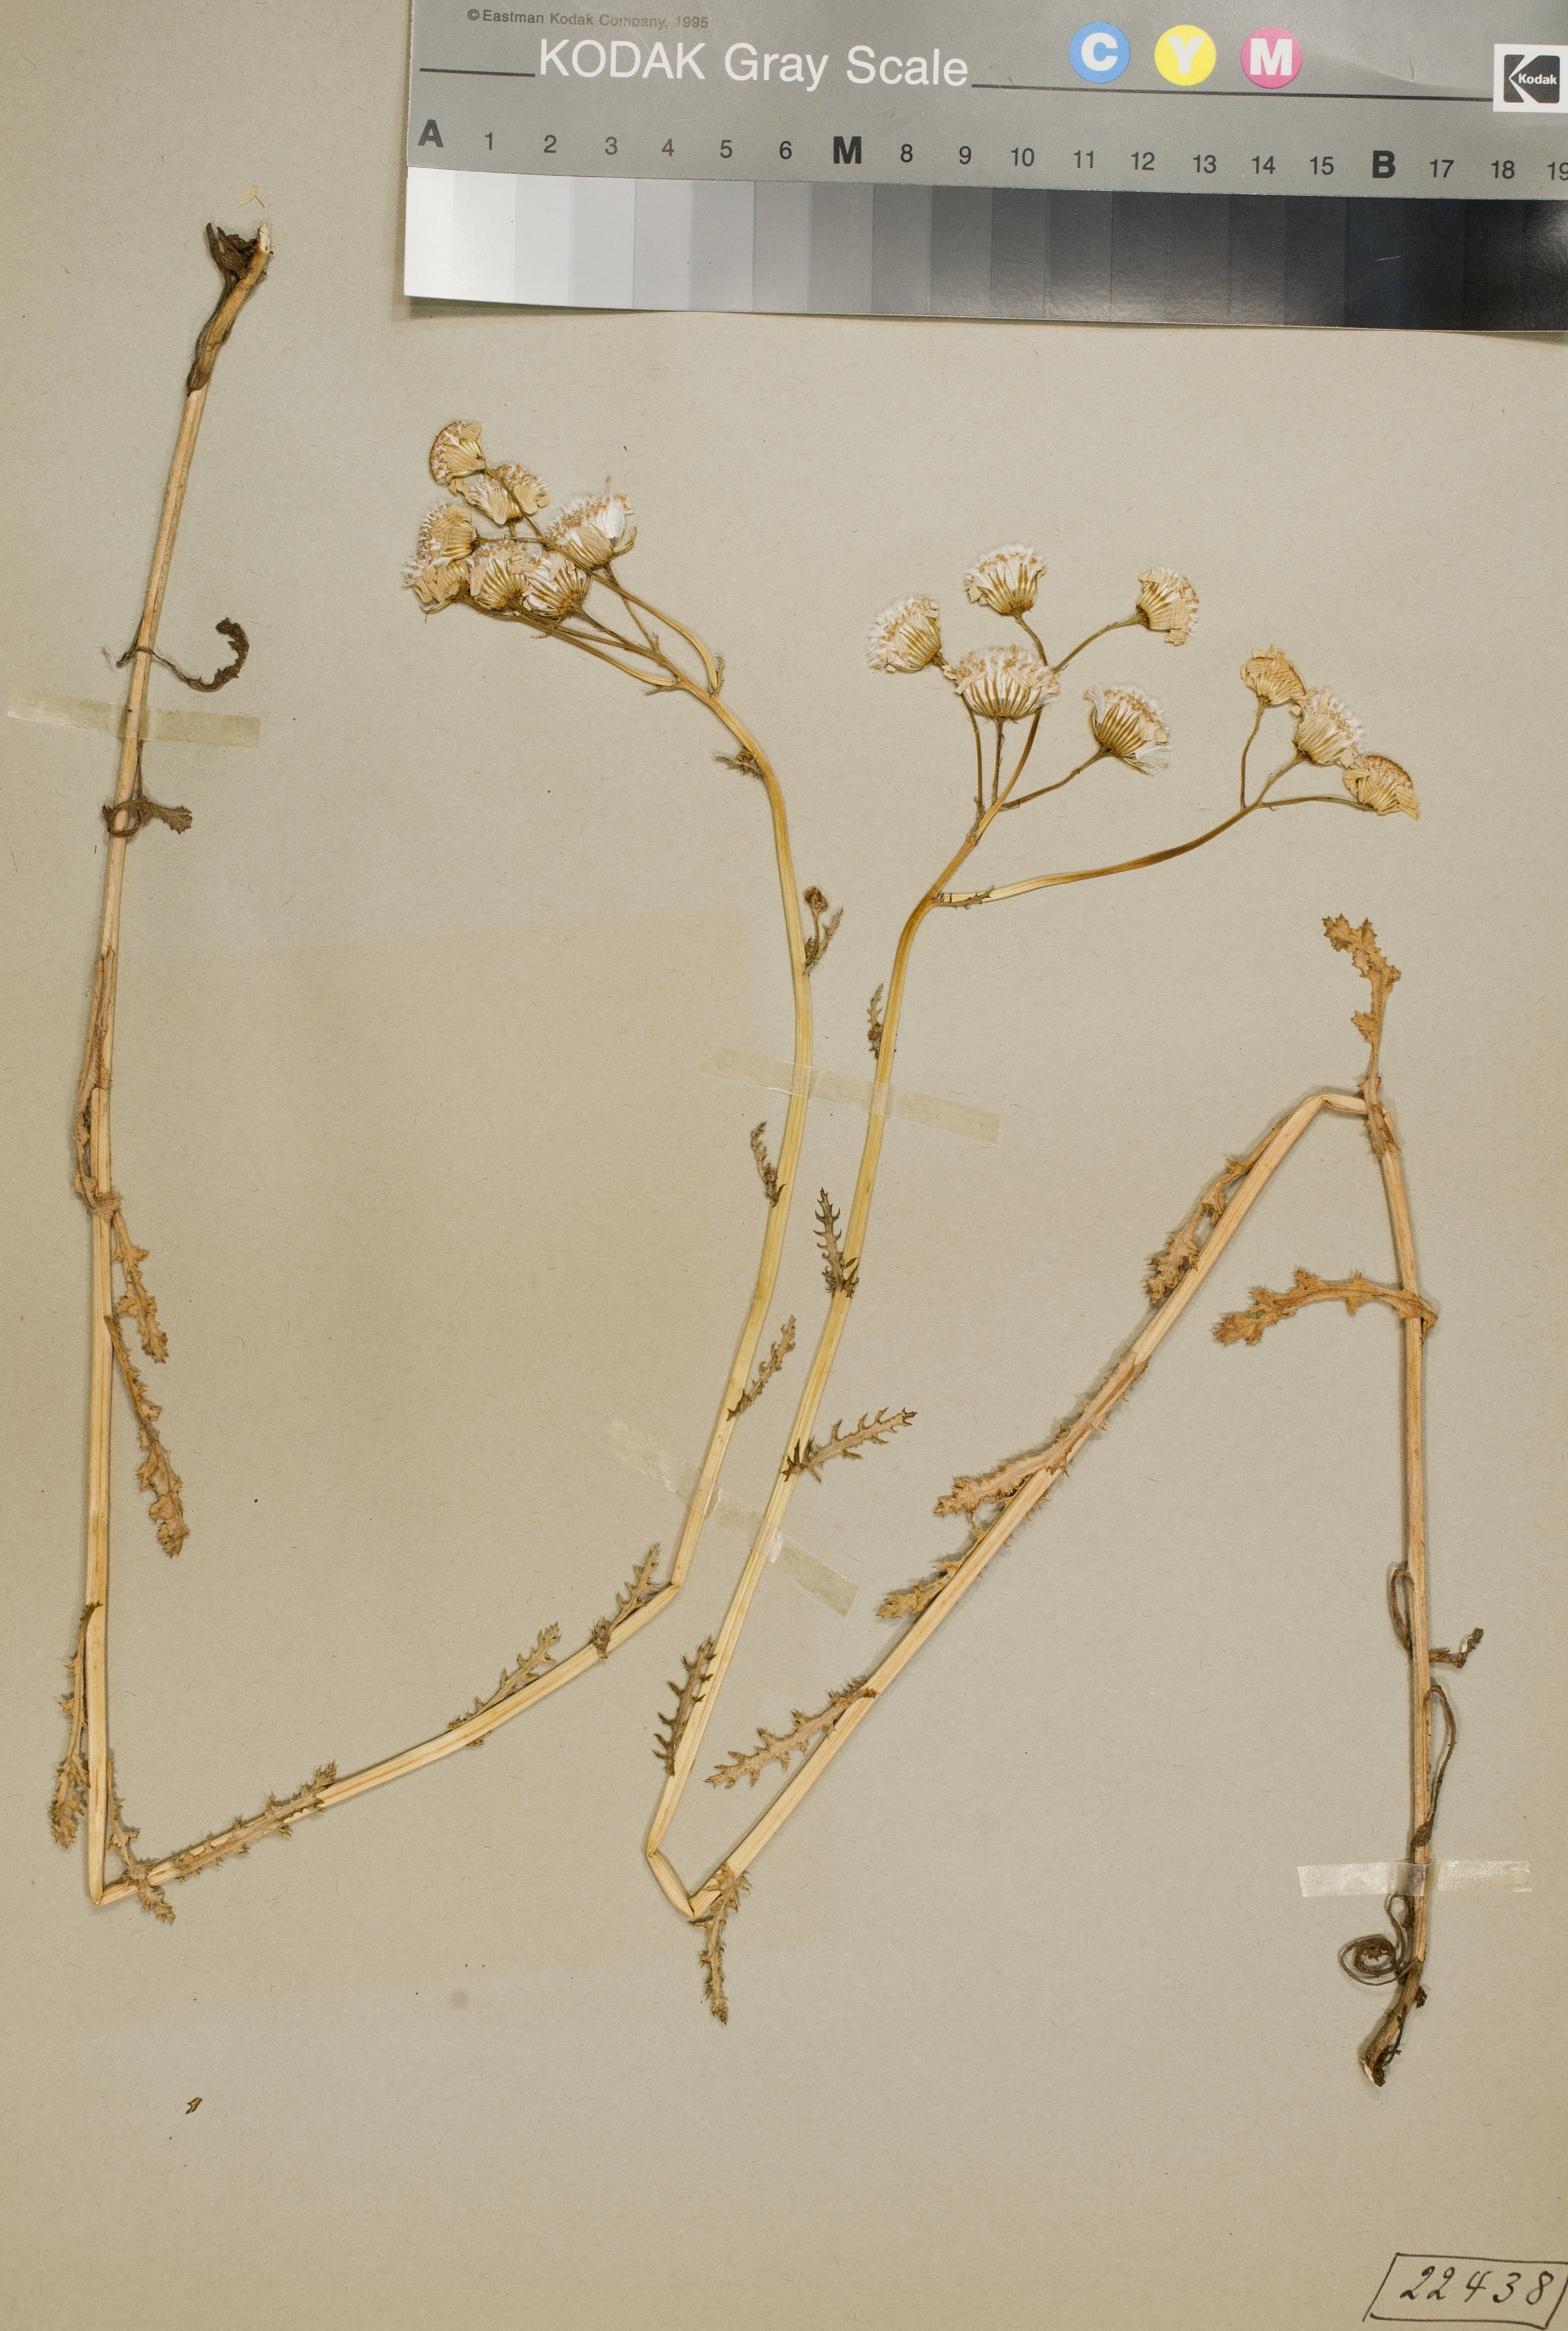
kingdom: Plantae
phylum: Tracheophyta
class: Magnoliopsida
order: Asterales
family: Asteraceae
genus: Senecio
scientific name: Senecio vernalis
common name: Eastern groundsel
